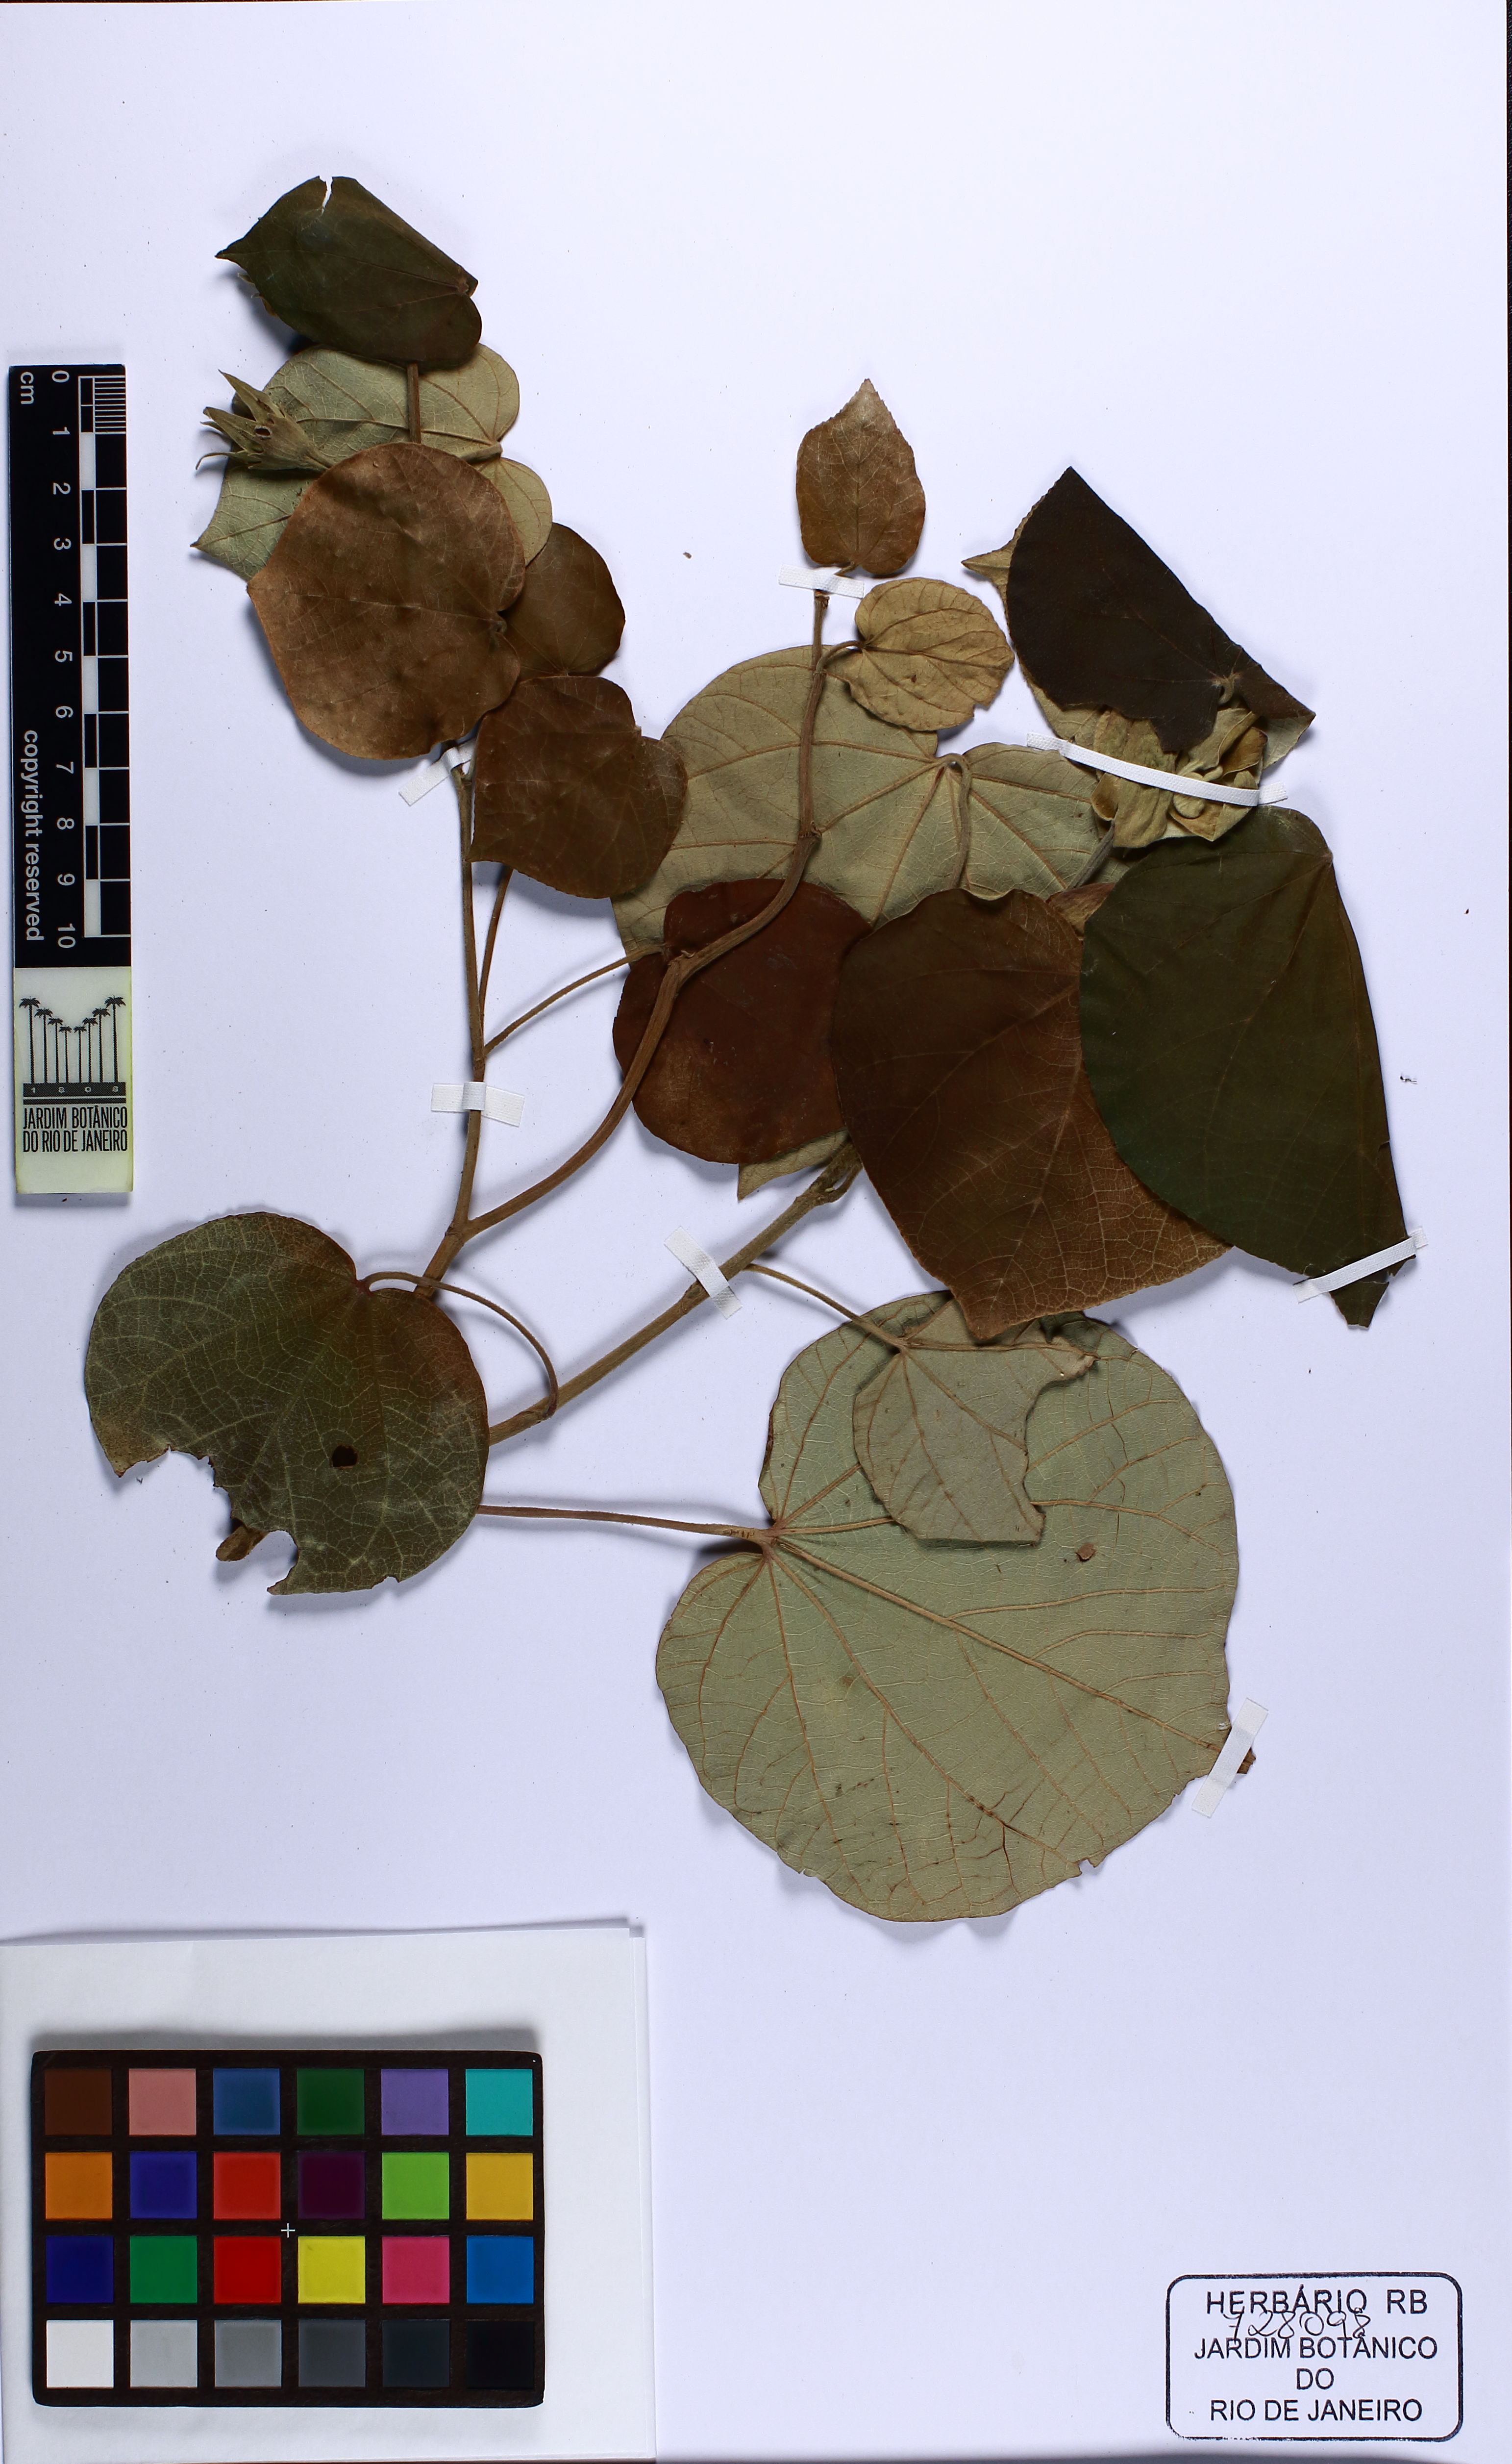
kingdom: Plantae
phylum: Tracheophyta
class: Magnoliopsida
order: Malvales
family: Malvaceae
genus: Talipariti
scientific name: Talipariti pernambucense
